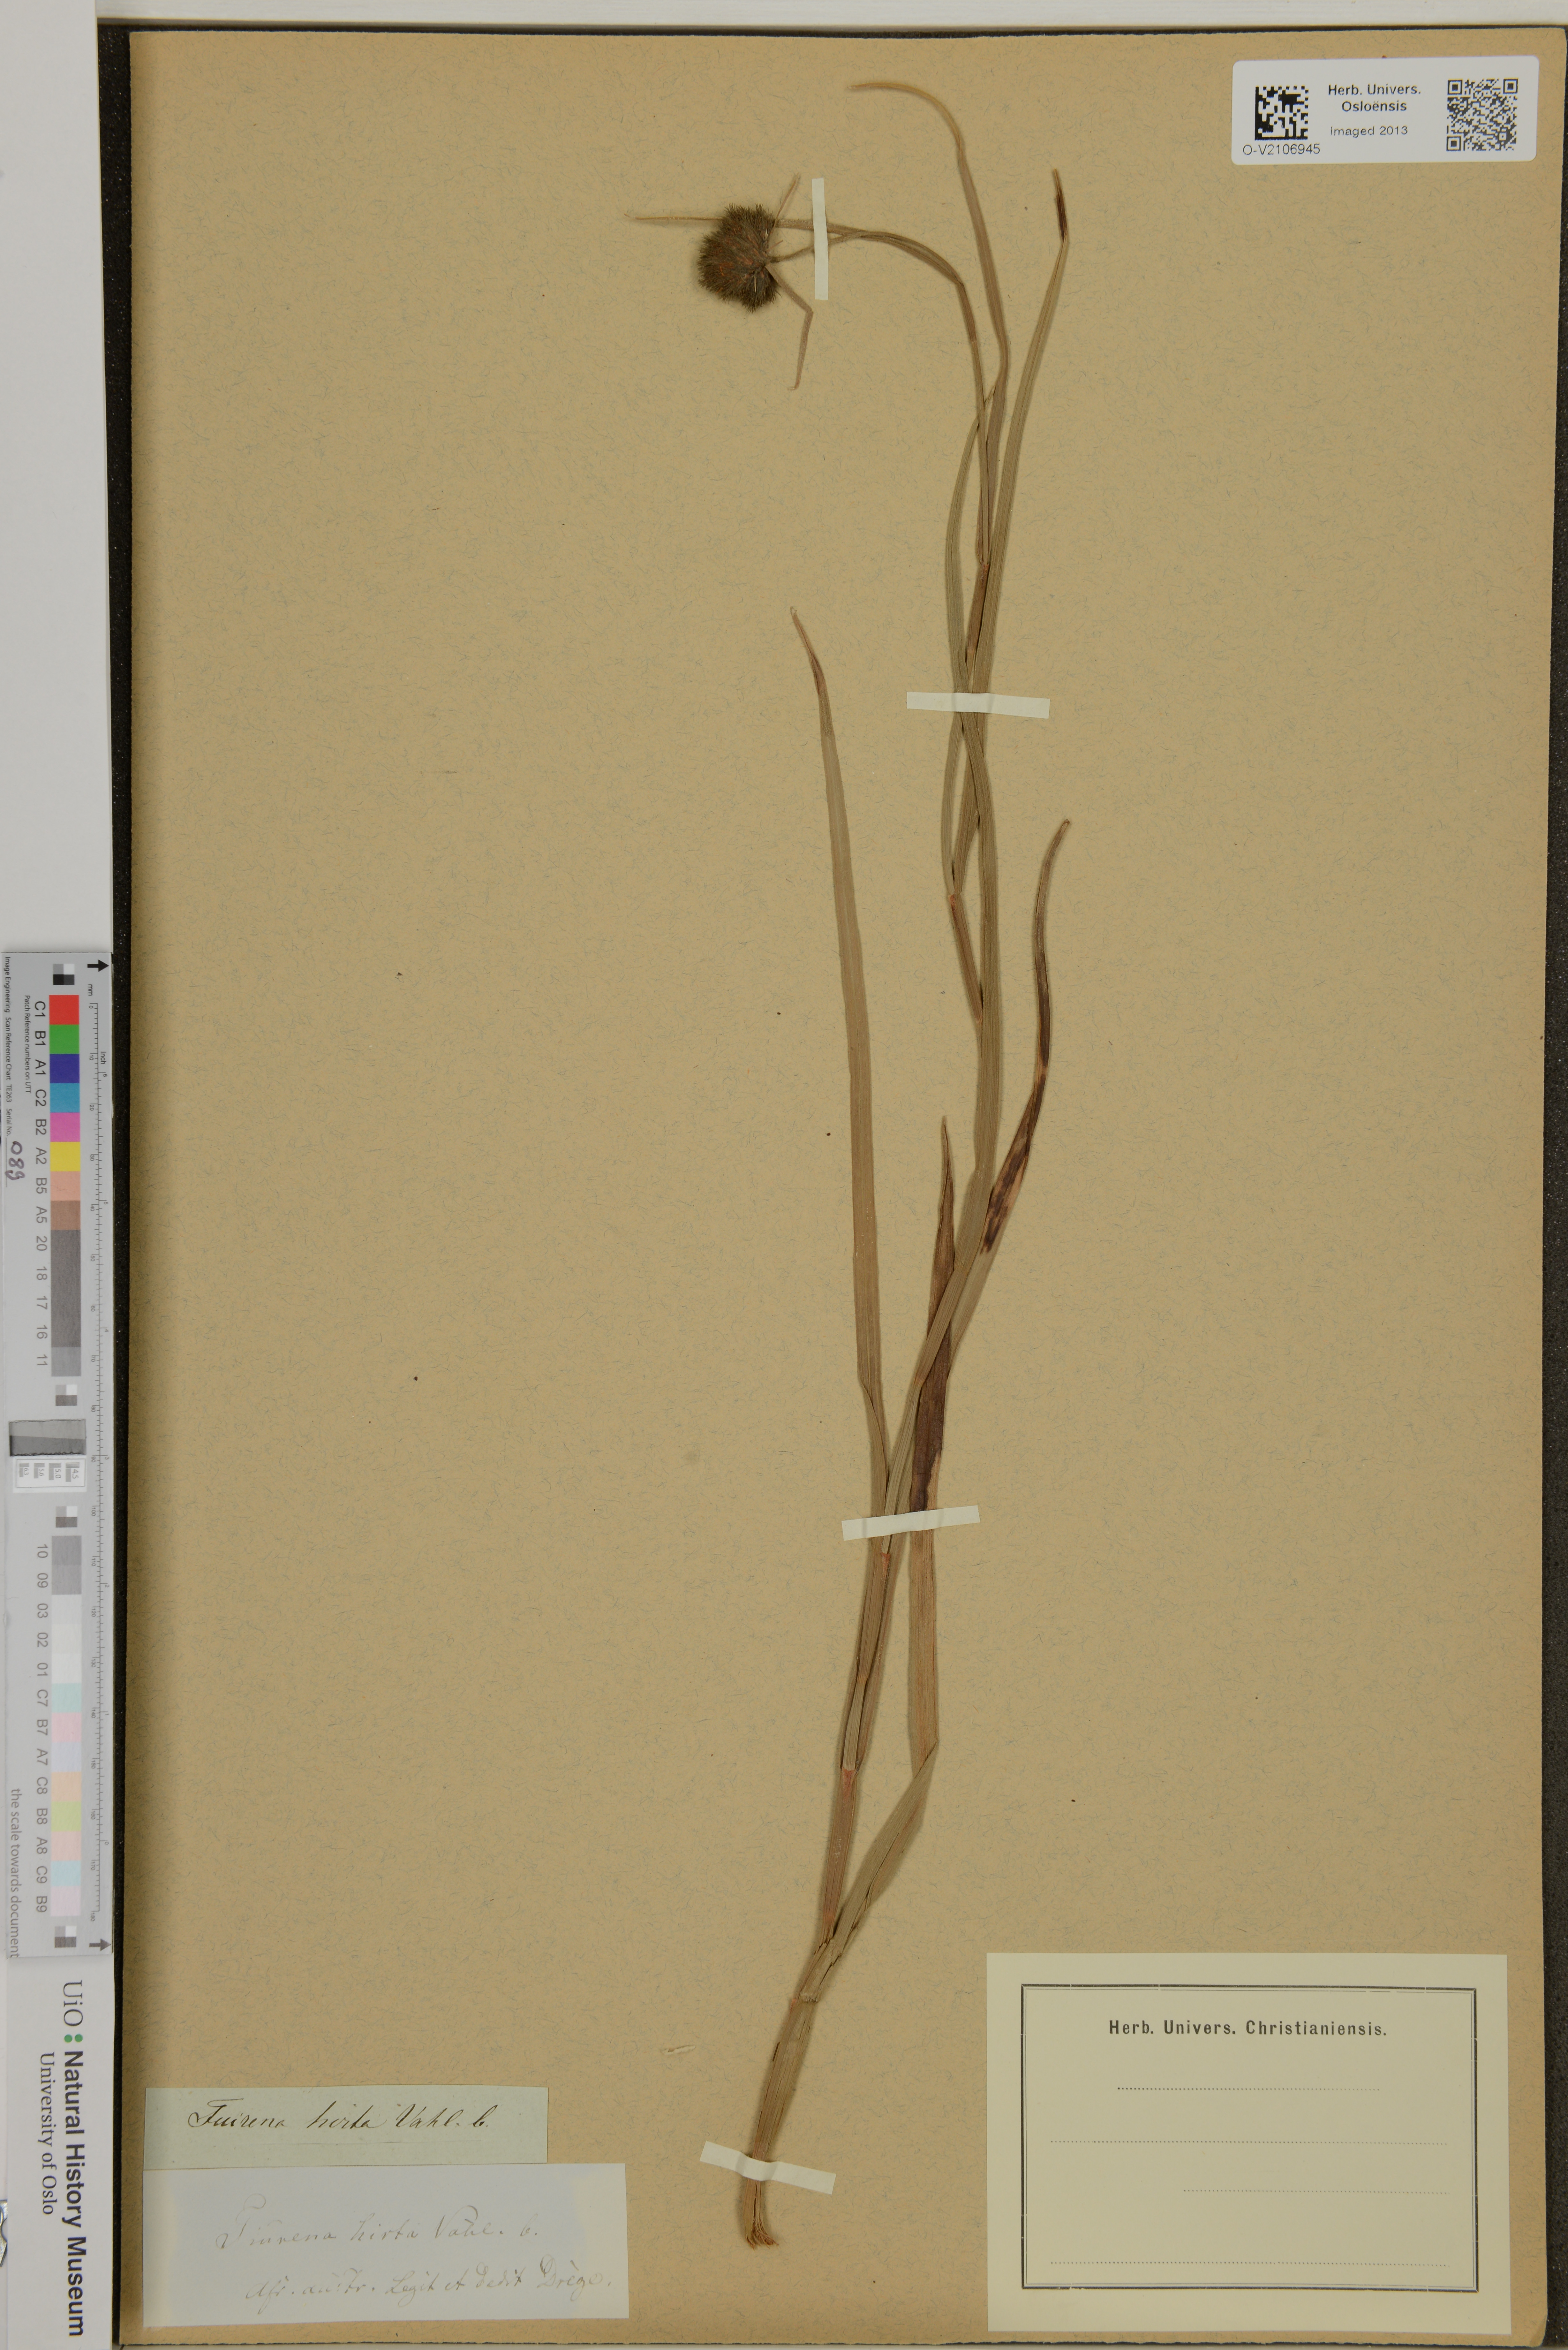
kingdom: Plantae
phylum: Tracheophyta
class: Liliopsida
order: Poales
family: Cyperaceae
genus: Fuirena
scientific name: Fuirena hirsuta
